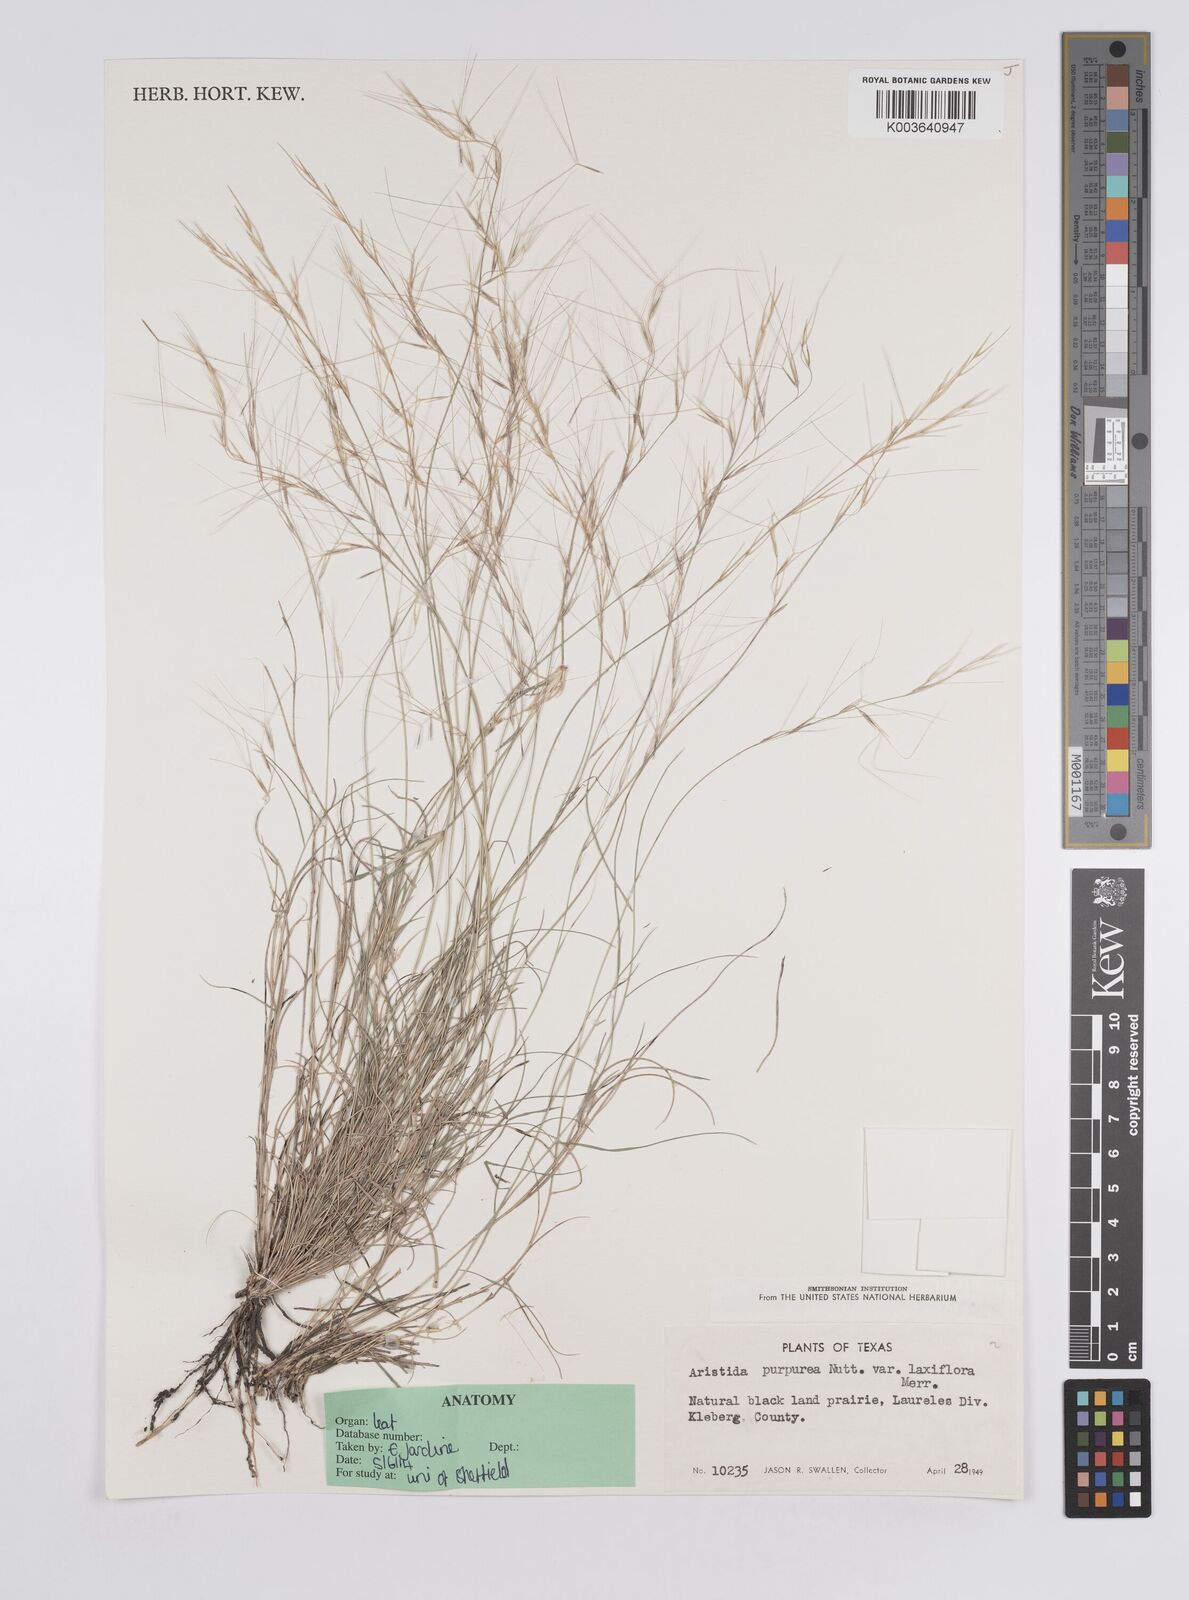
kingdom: Plantae
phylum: Tracheophyta
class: Liliopsida
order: Poales
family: Poaceae
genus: Aristida
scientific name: Aristida purpurea
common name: Purple threeawn
